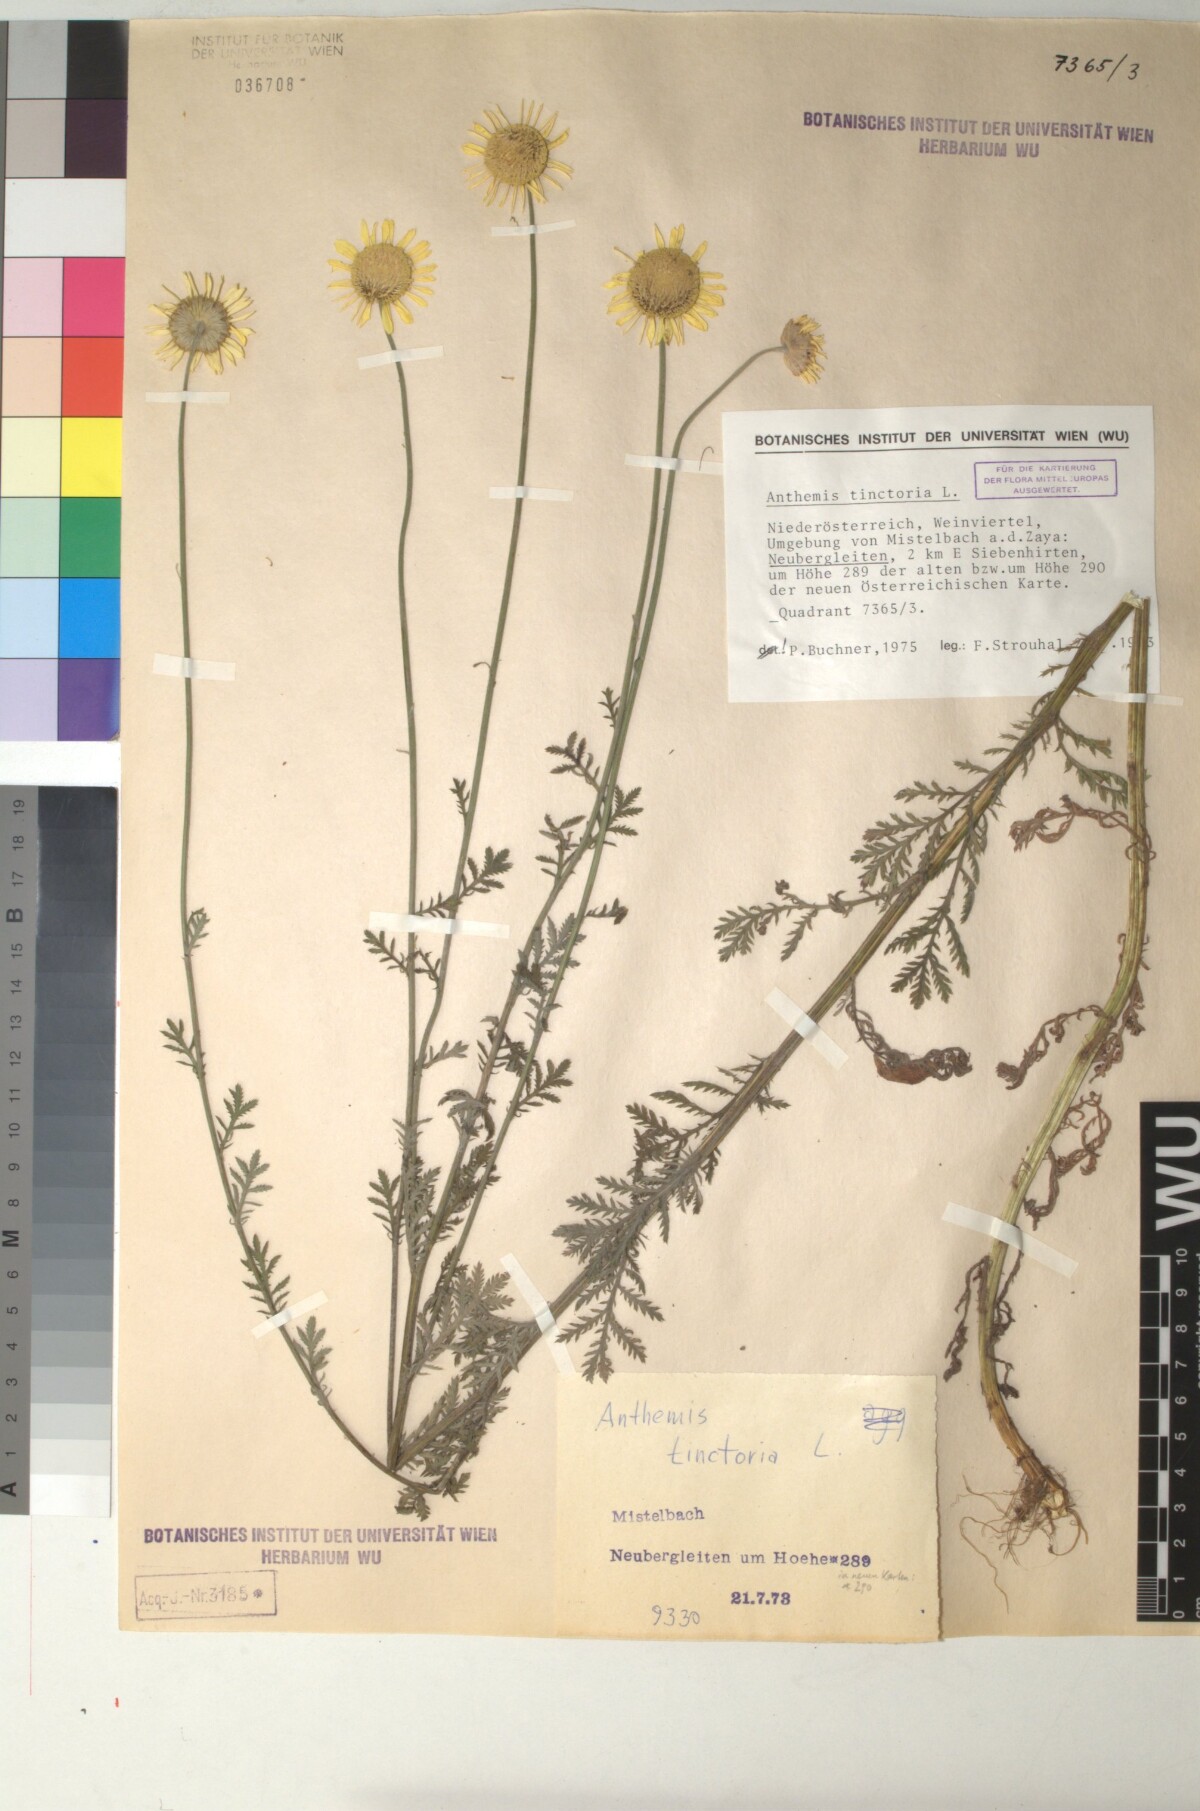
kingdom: Plantae
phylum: Tracheophyta
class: Magnoliopsida
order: Asterales
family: Asteraceae
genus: Cota
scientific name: Cota tinctoria
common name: Golden chamomile
